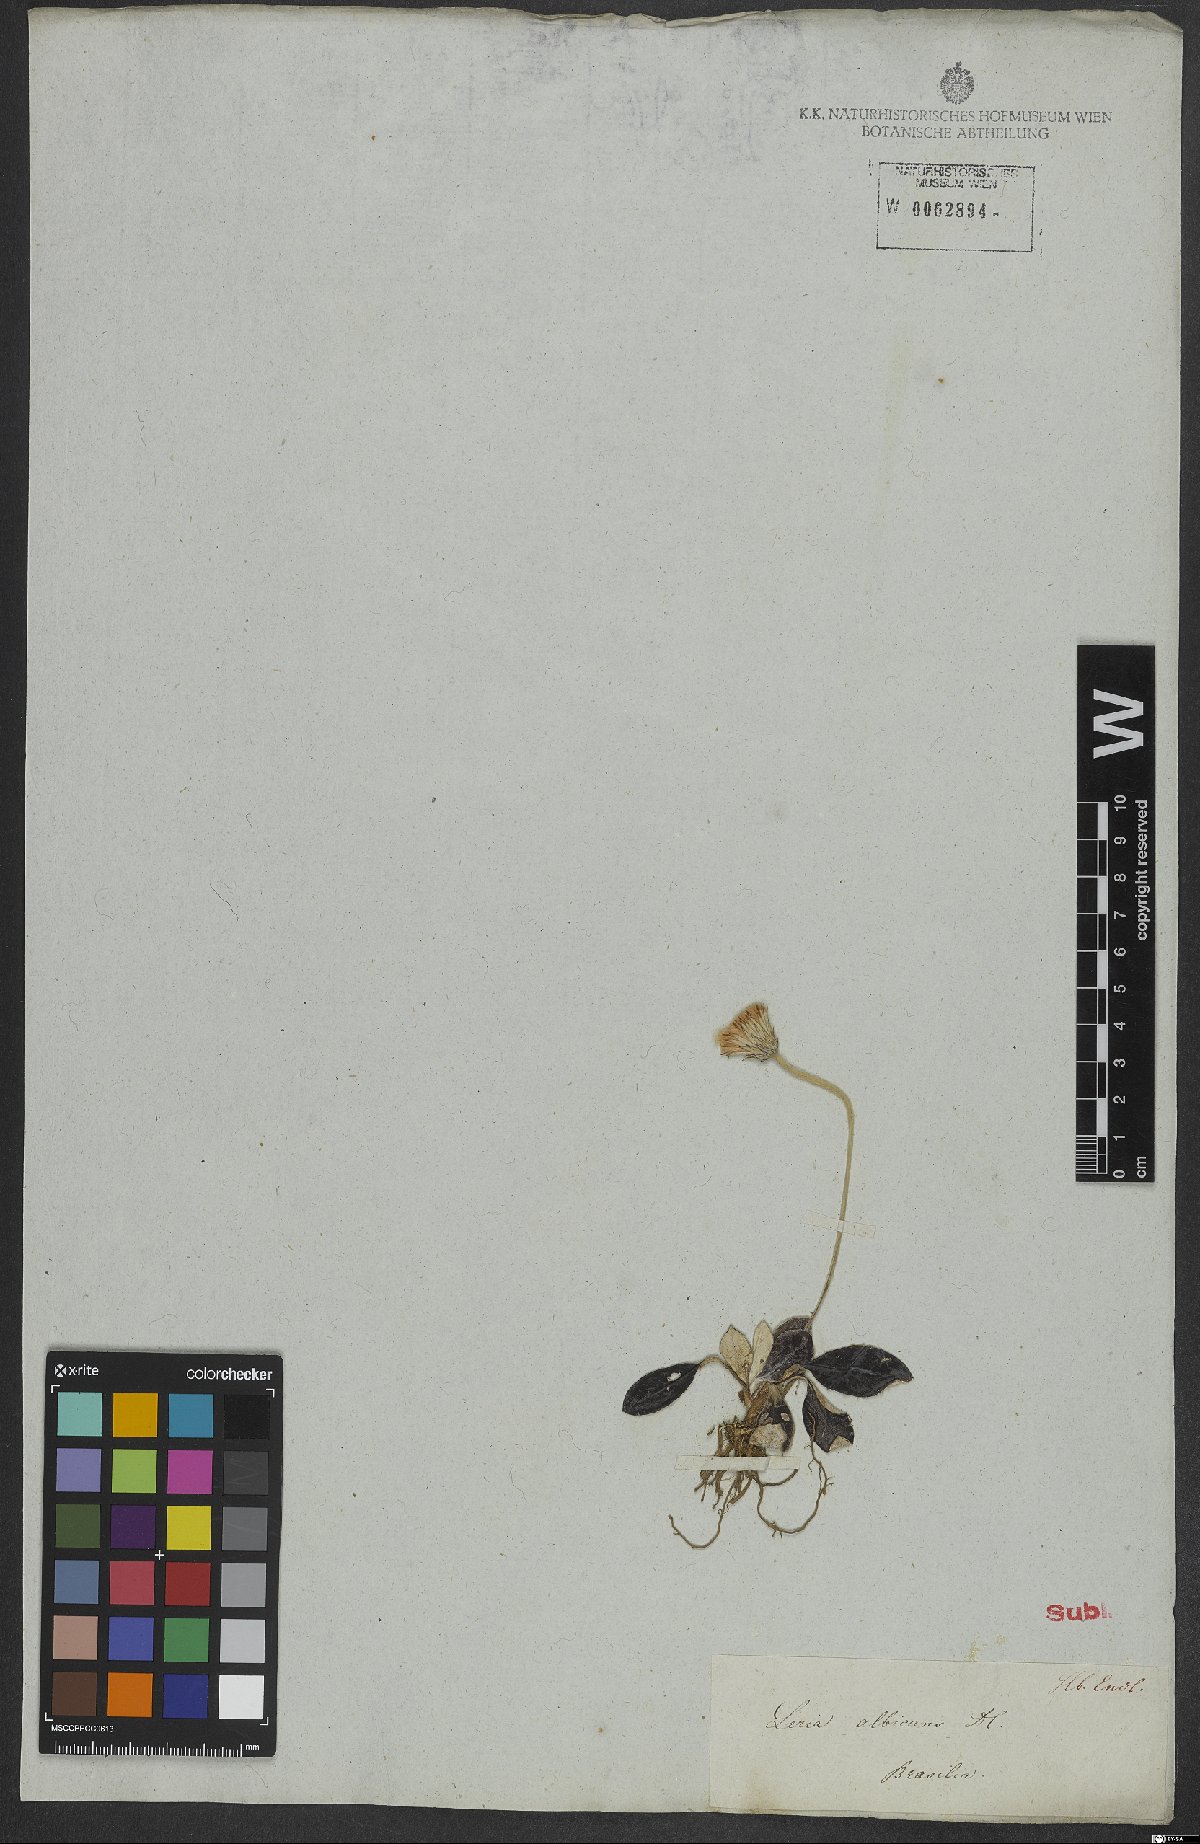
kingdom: Plantae
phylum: Tracheophyta
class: Magnoliopsida
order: Asterales
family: Asteraceae
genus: Chaptalia
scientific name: Chaptalia albicans
